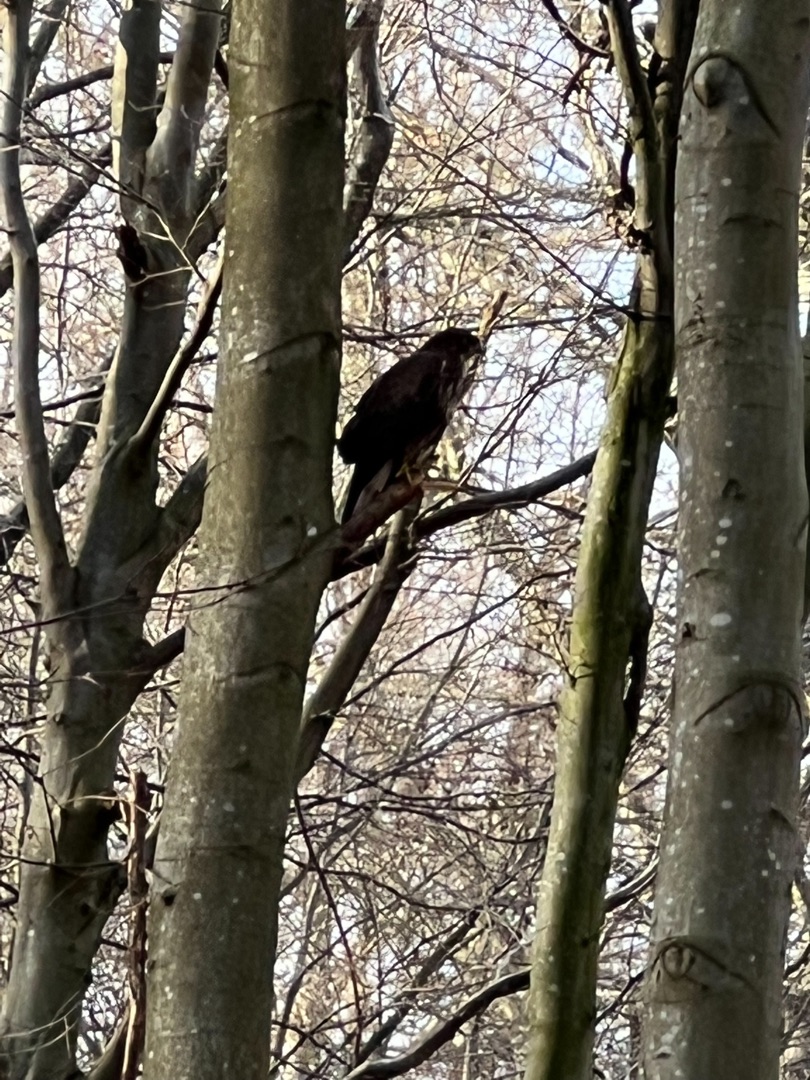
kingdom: Animalia
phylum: Chordata
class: Aves
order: Accipitriformes
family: Accipitridae
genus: Buteo
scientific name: Buteo buteo
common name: Musvåge
